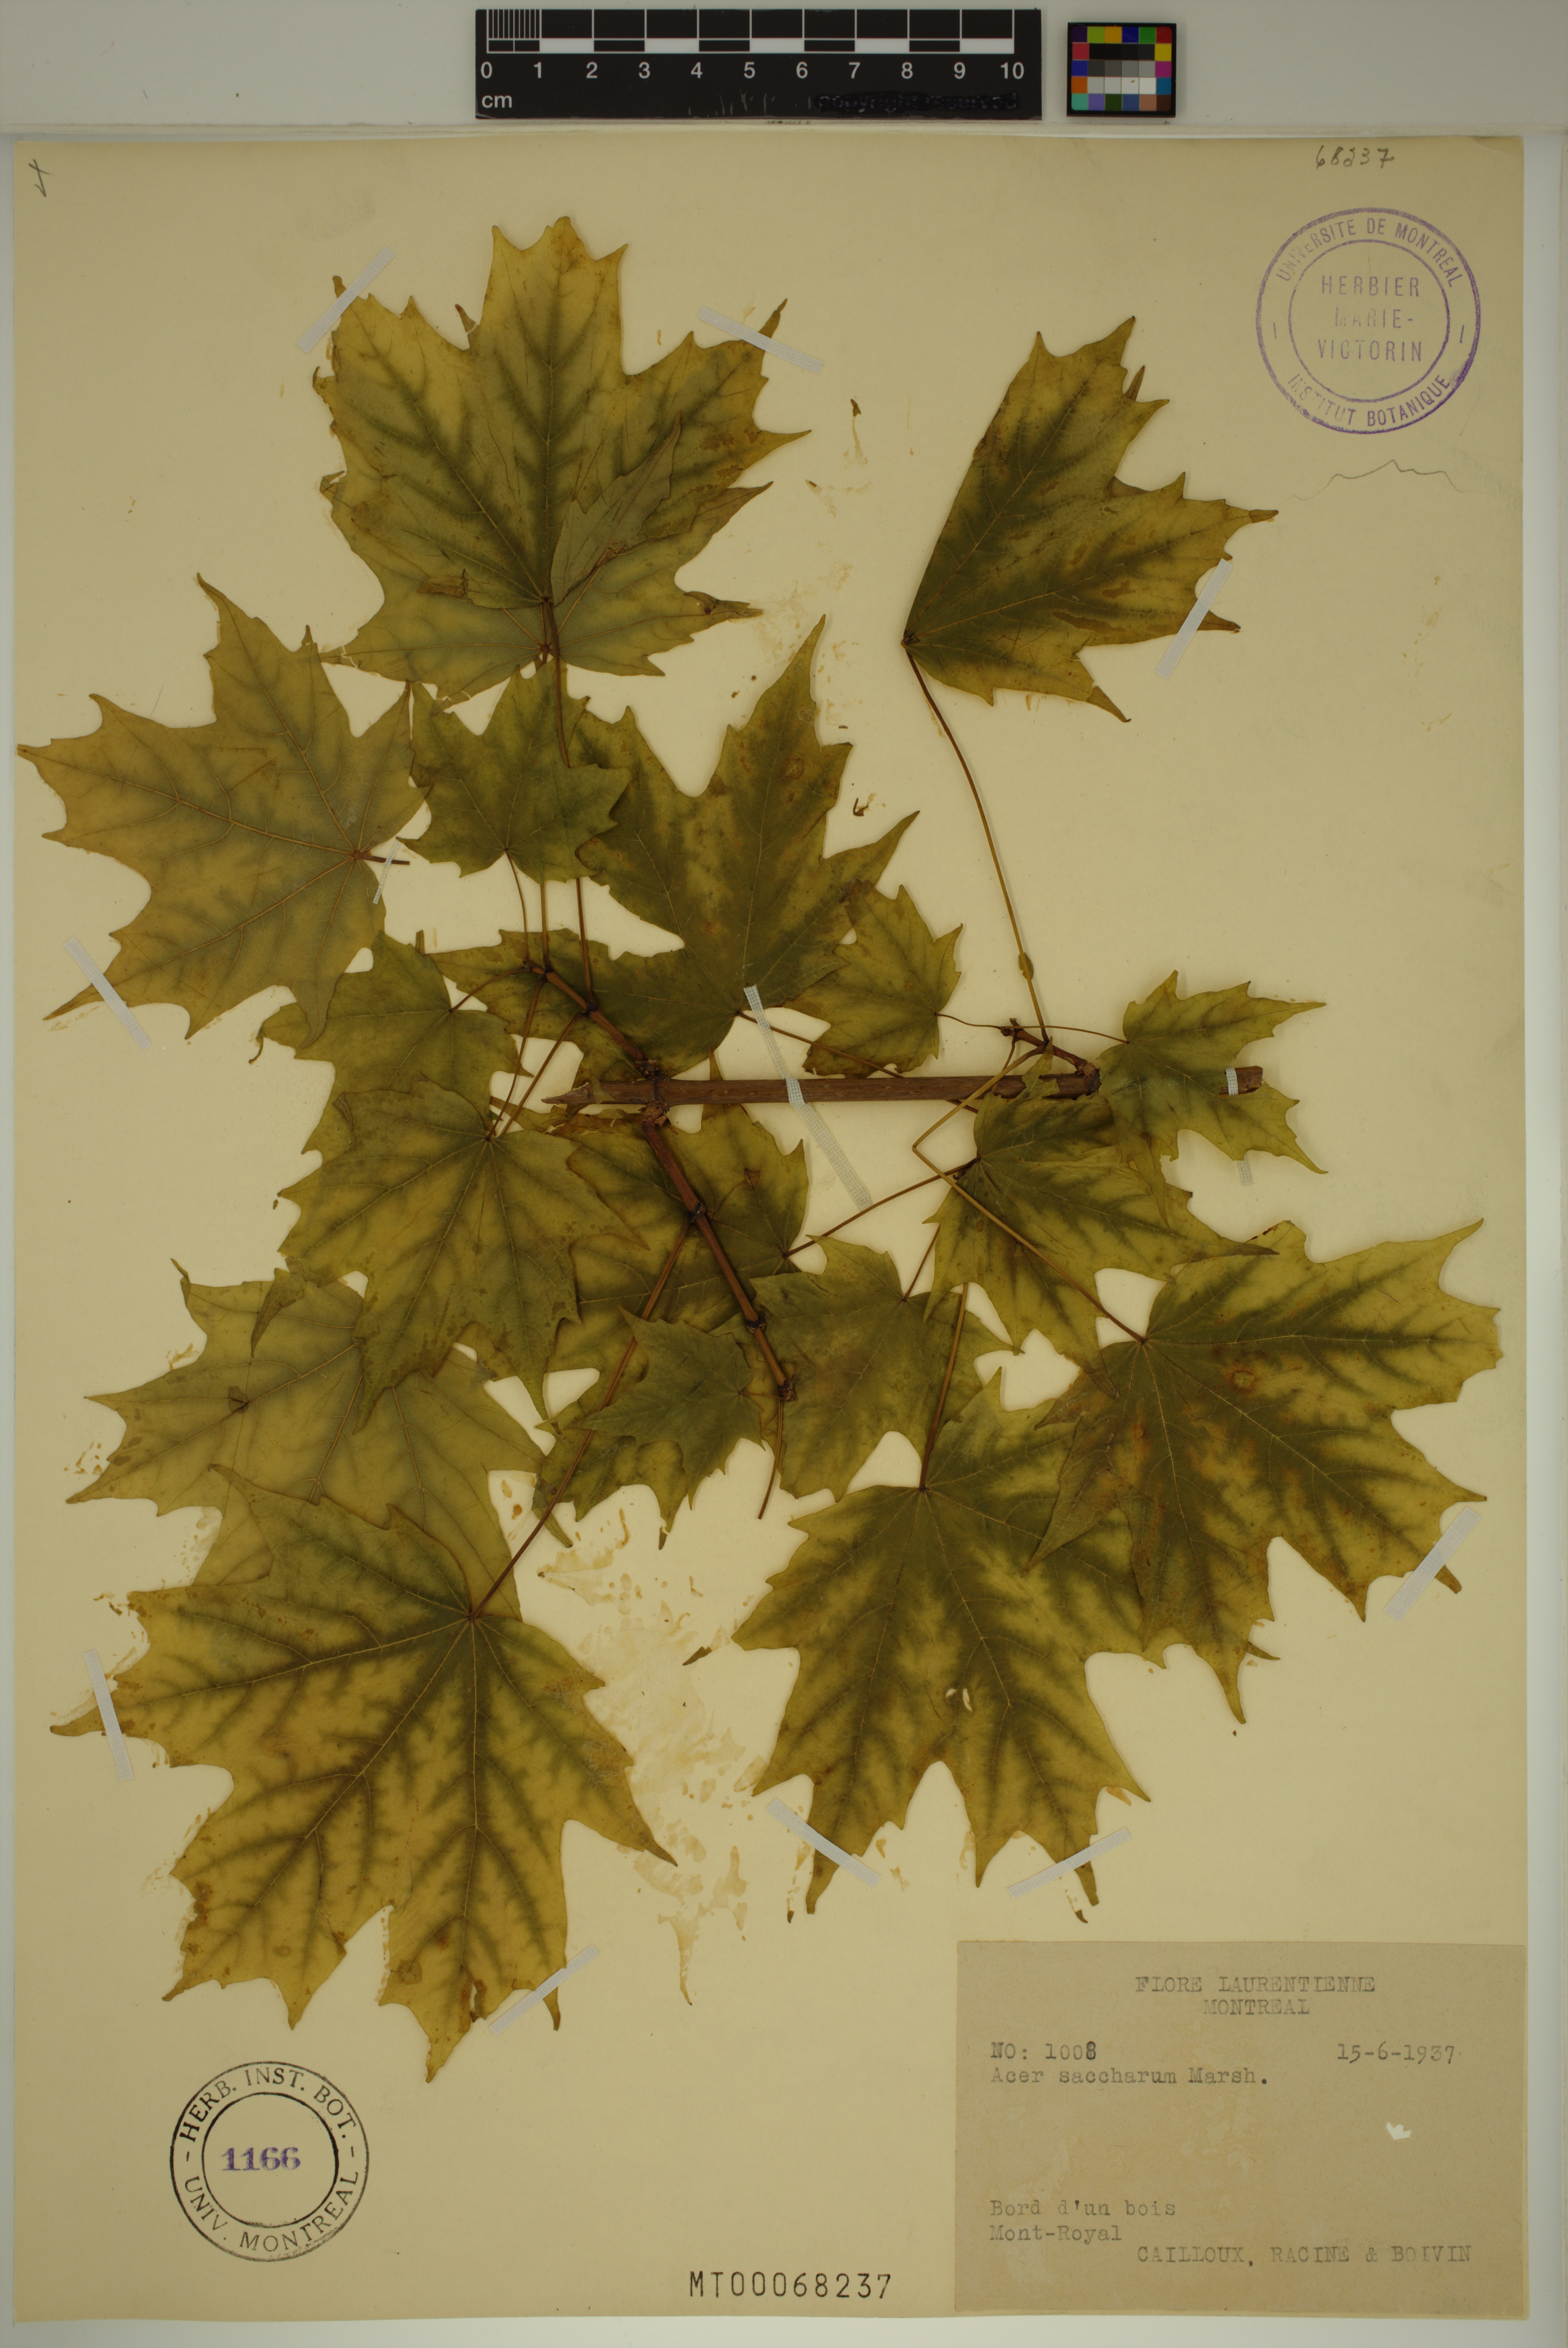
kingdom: Plantae
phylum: Tracheophyta
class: Magnoliopsida
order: Sapindales
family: Sapindaceae
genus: Acer
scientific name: Acer saccharum
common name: Sugar maple
